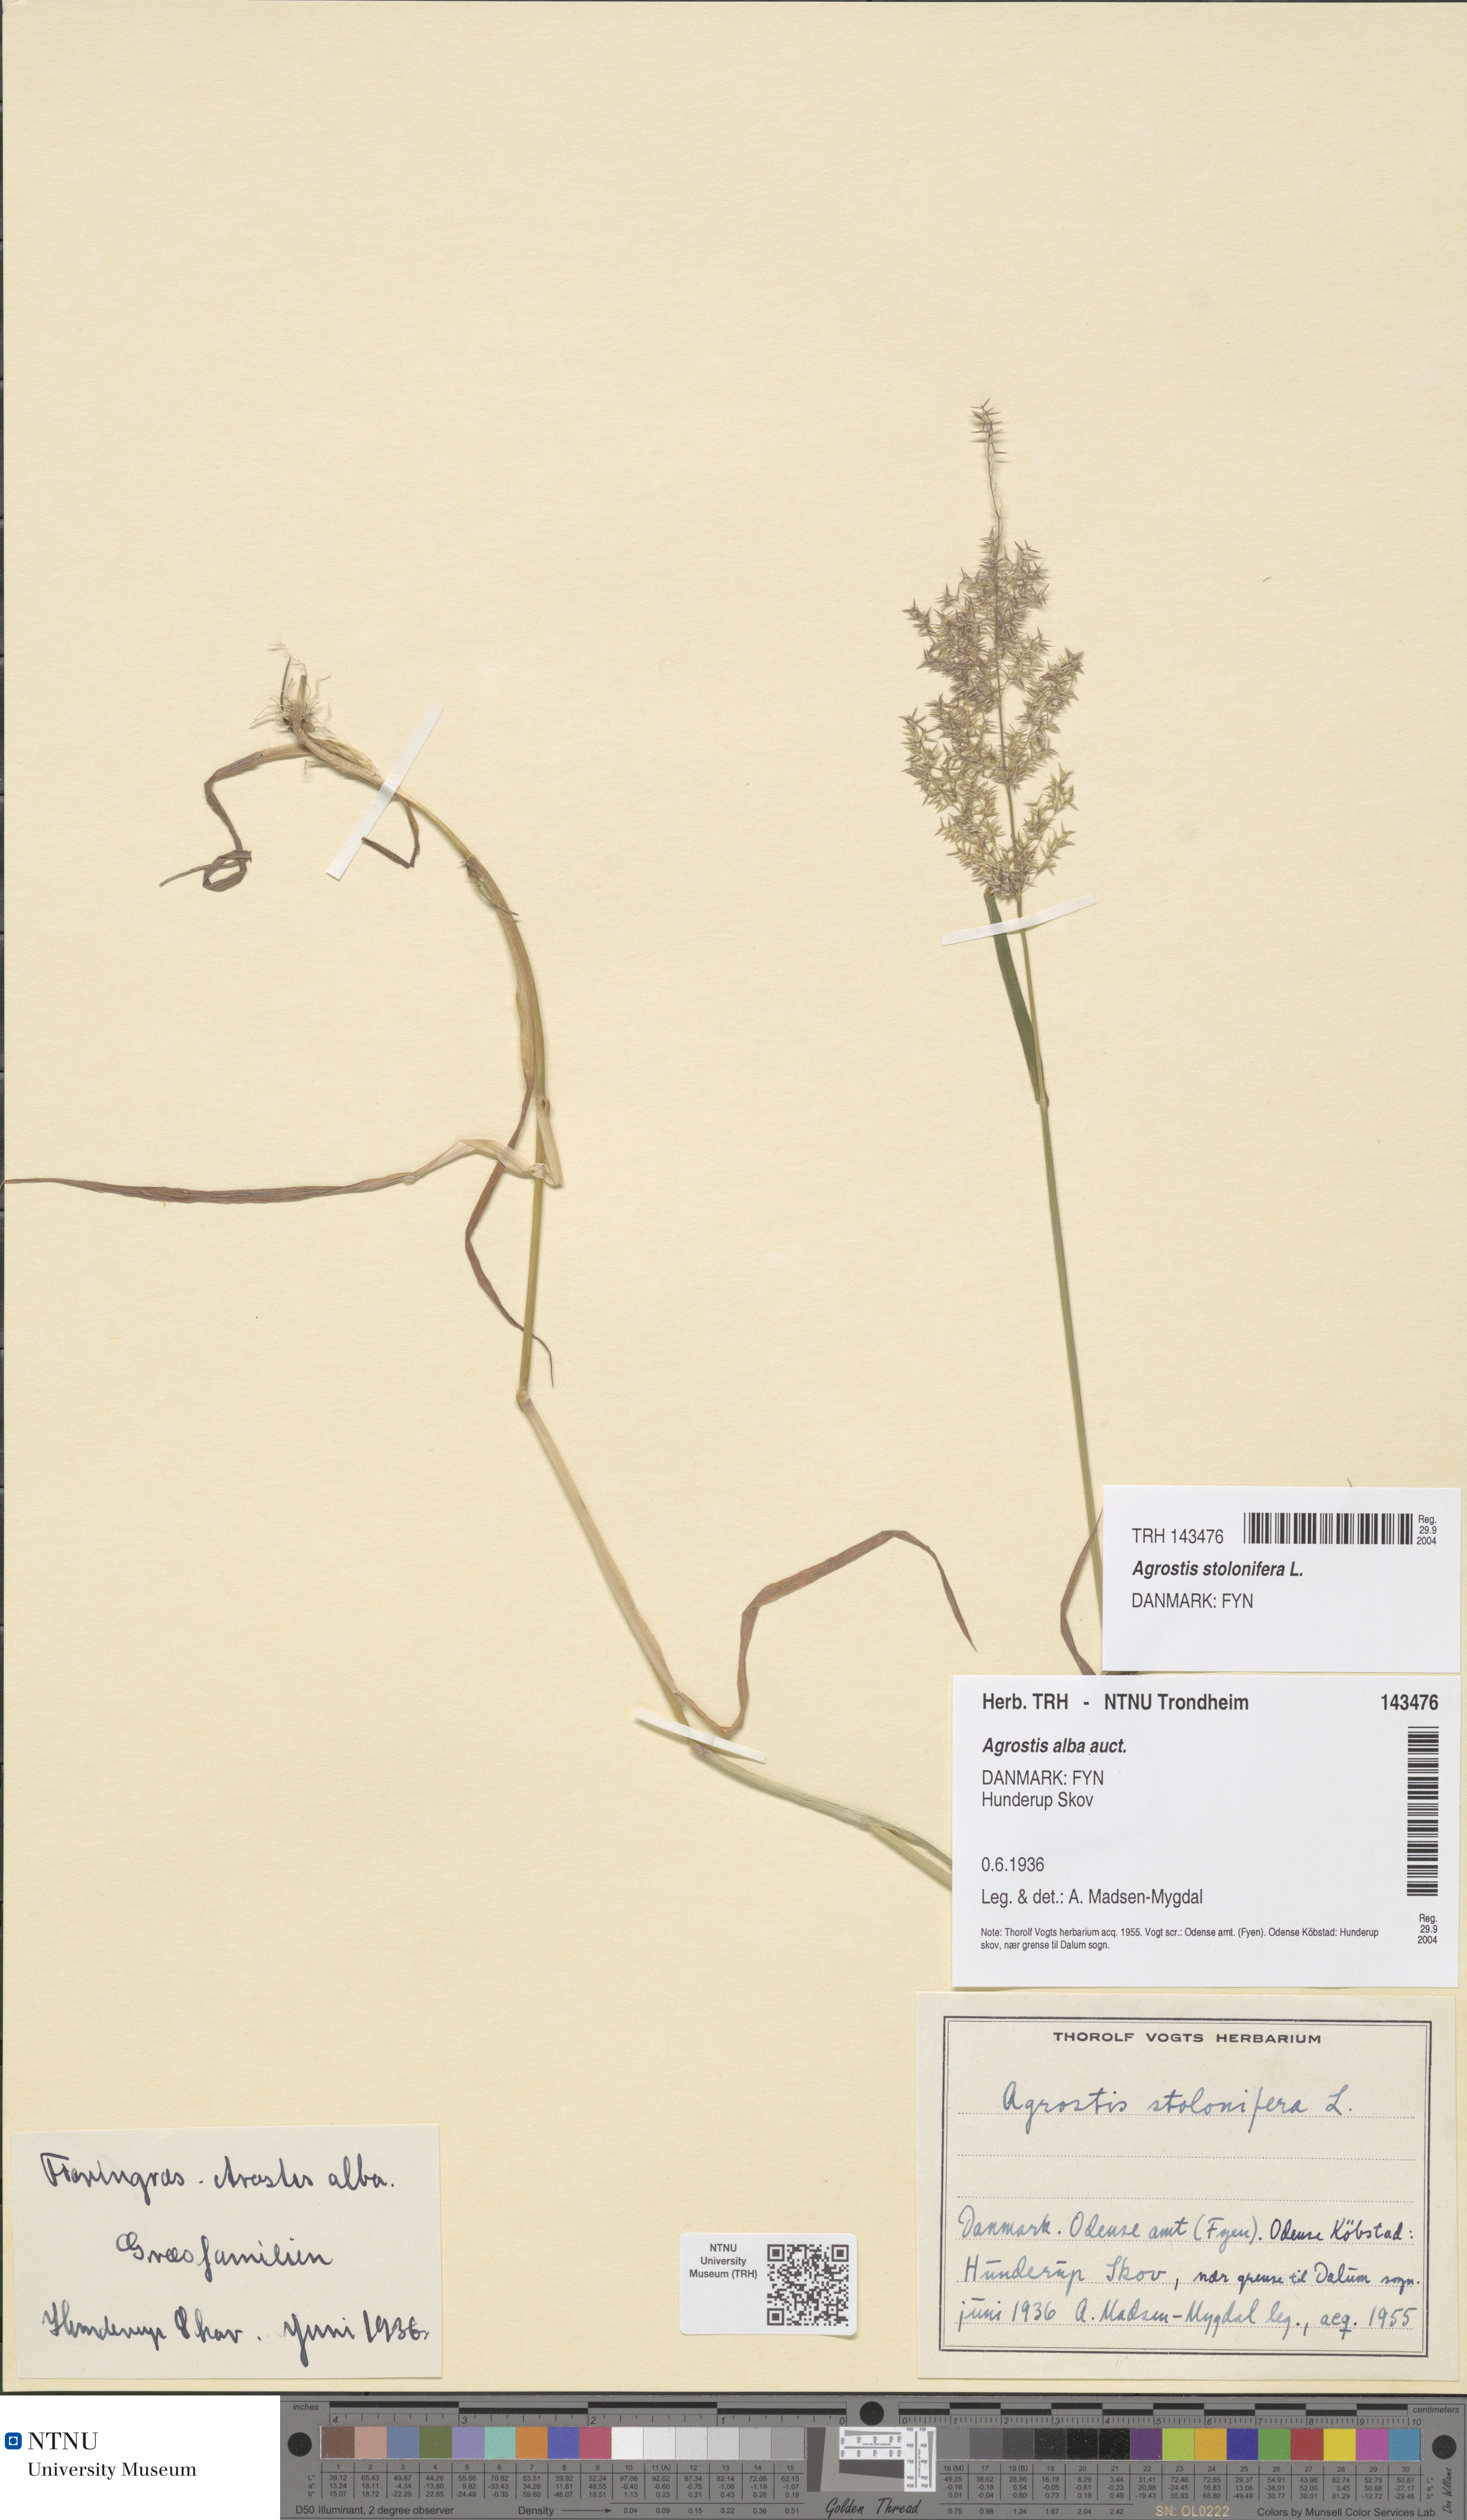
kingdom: Plantae
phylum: Tracheophyta
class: Liliopsida
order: Poales
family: Poaceae
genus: Agrostis
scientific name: Agrostis stolonifera
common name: Creeping bentgrass
